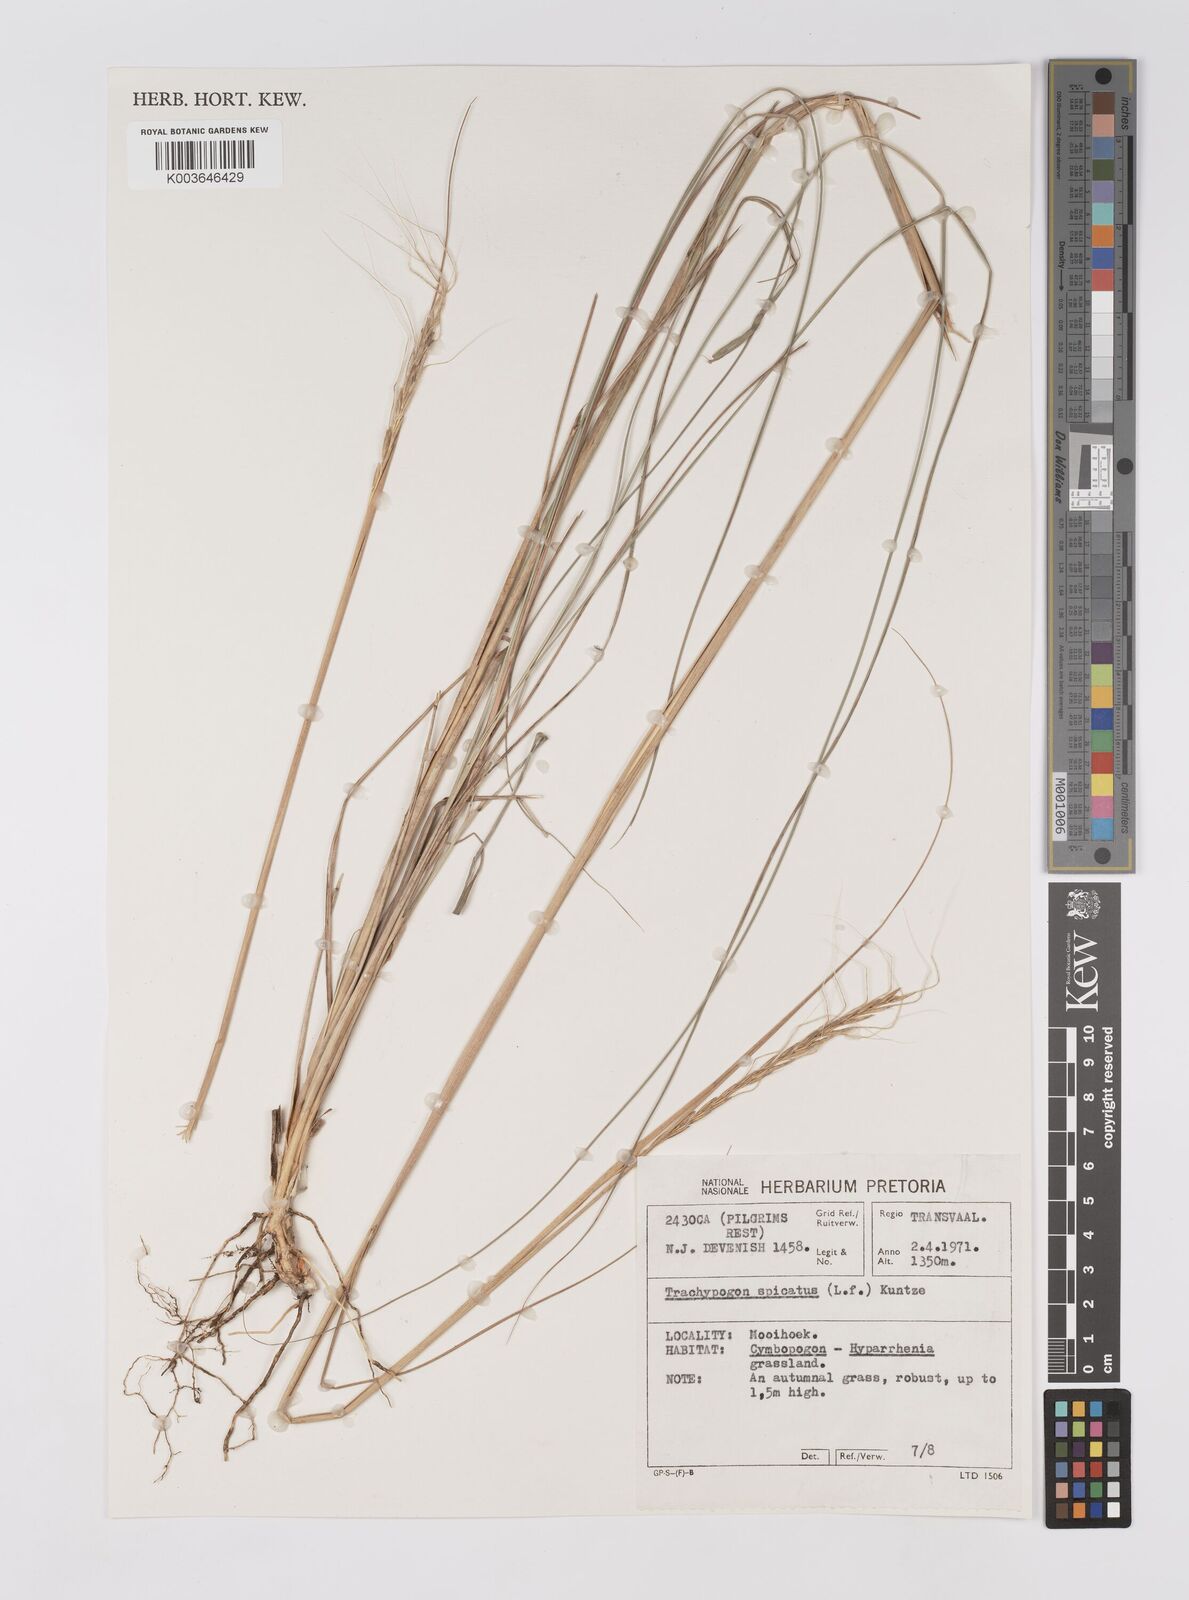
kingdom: Plantae
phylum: Tracheophyta
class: Liliopsida
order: Poales
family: Poaceae
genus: Trachypogon
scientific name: Trachypogon spicatus
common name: Crinkle-awn
